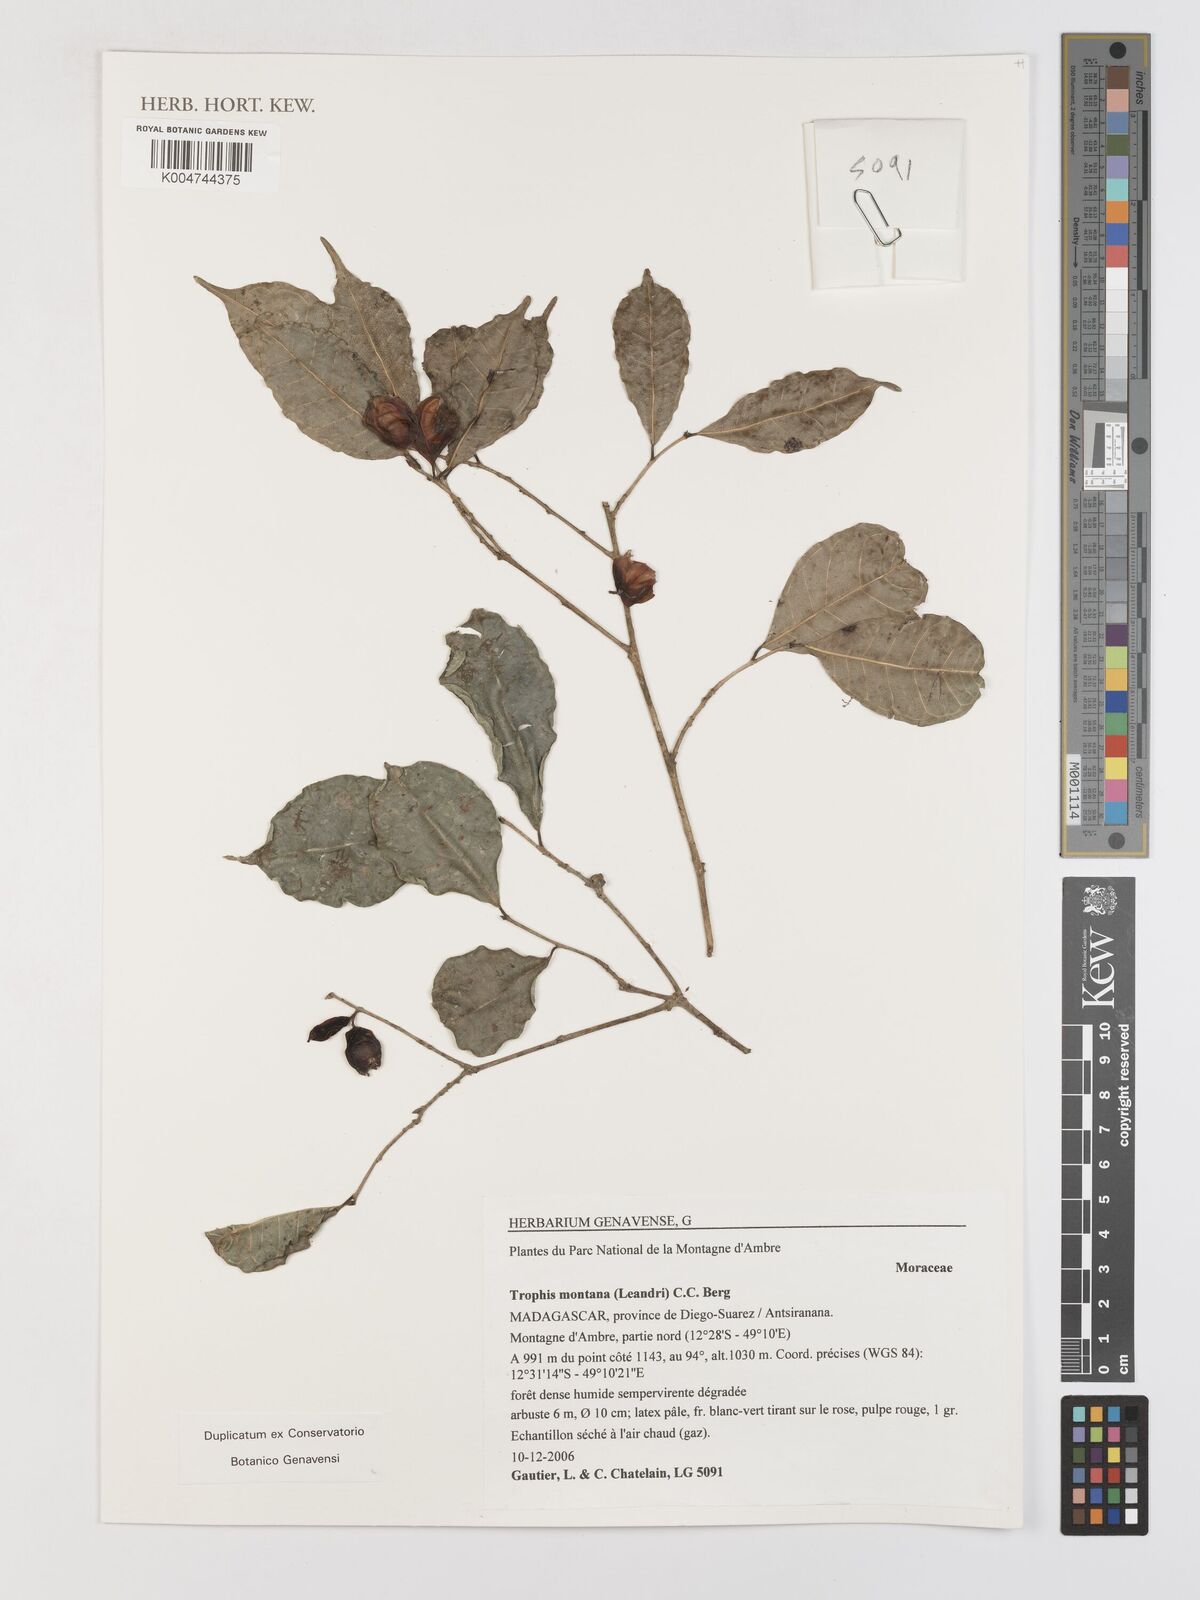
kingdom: Plantae
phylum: Tracheophyta
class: Magnoliopsida
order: Rosales
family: Moraceae
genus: Maillardia
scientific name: Maillardia montana
